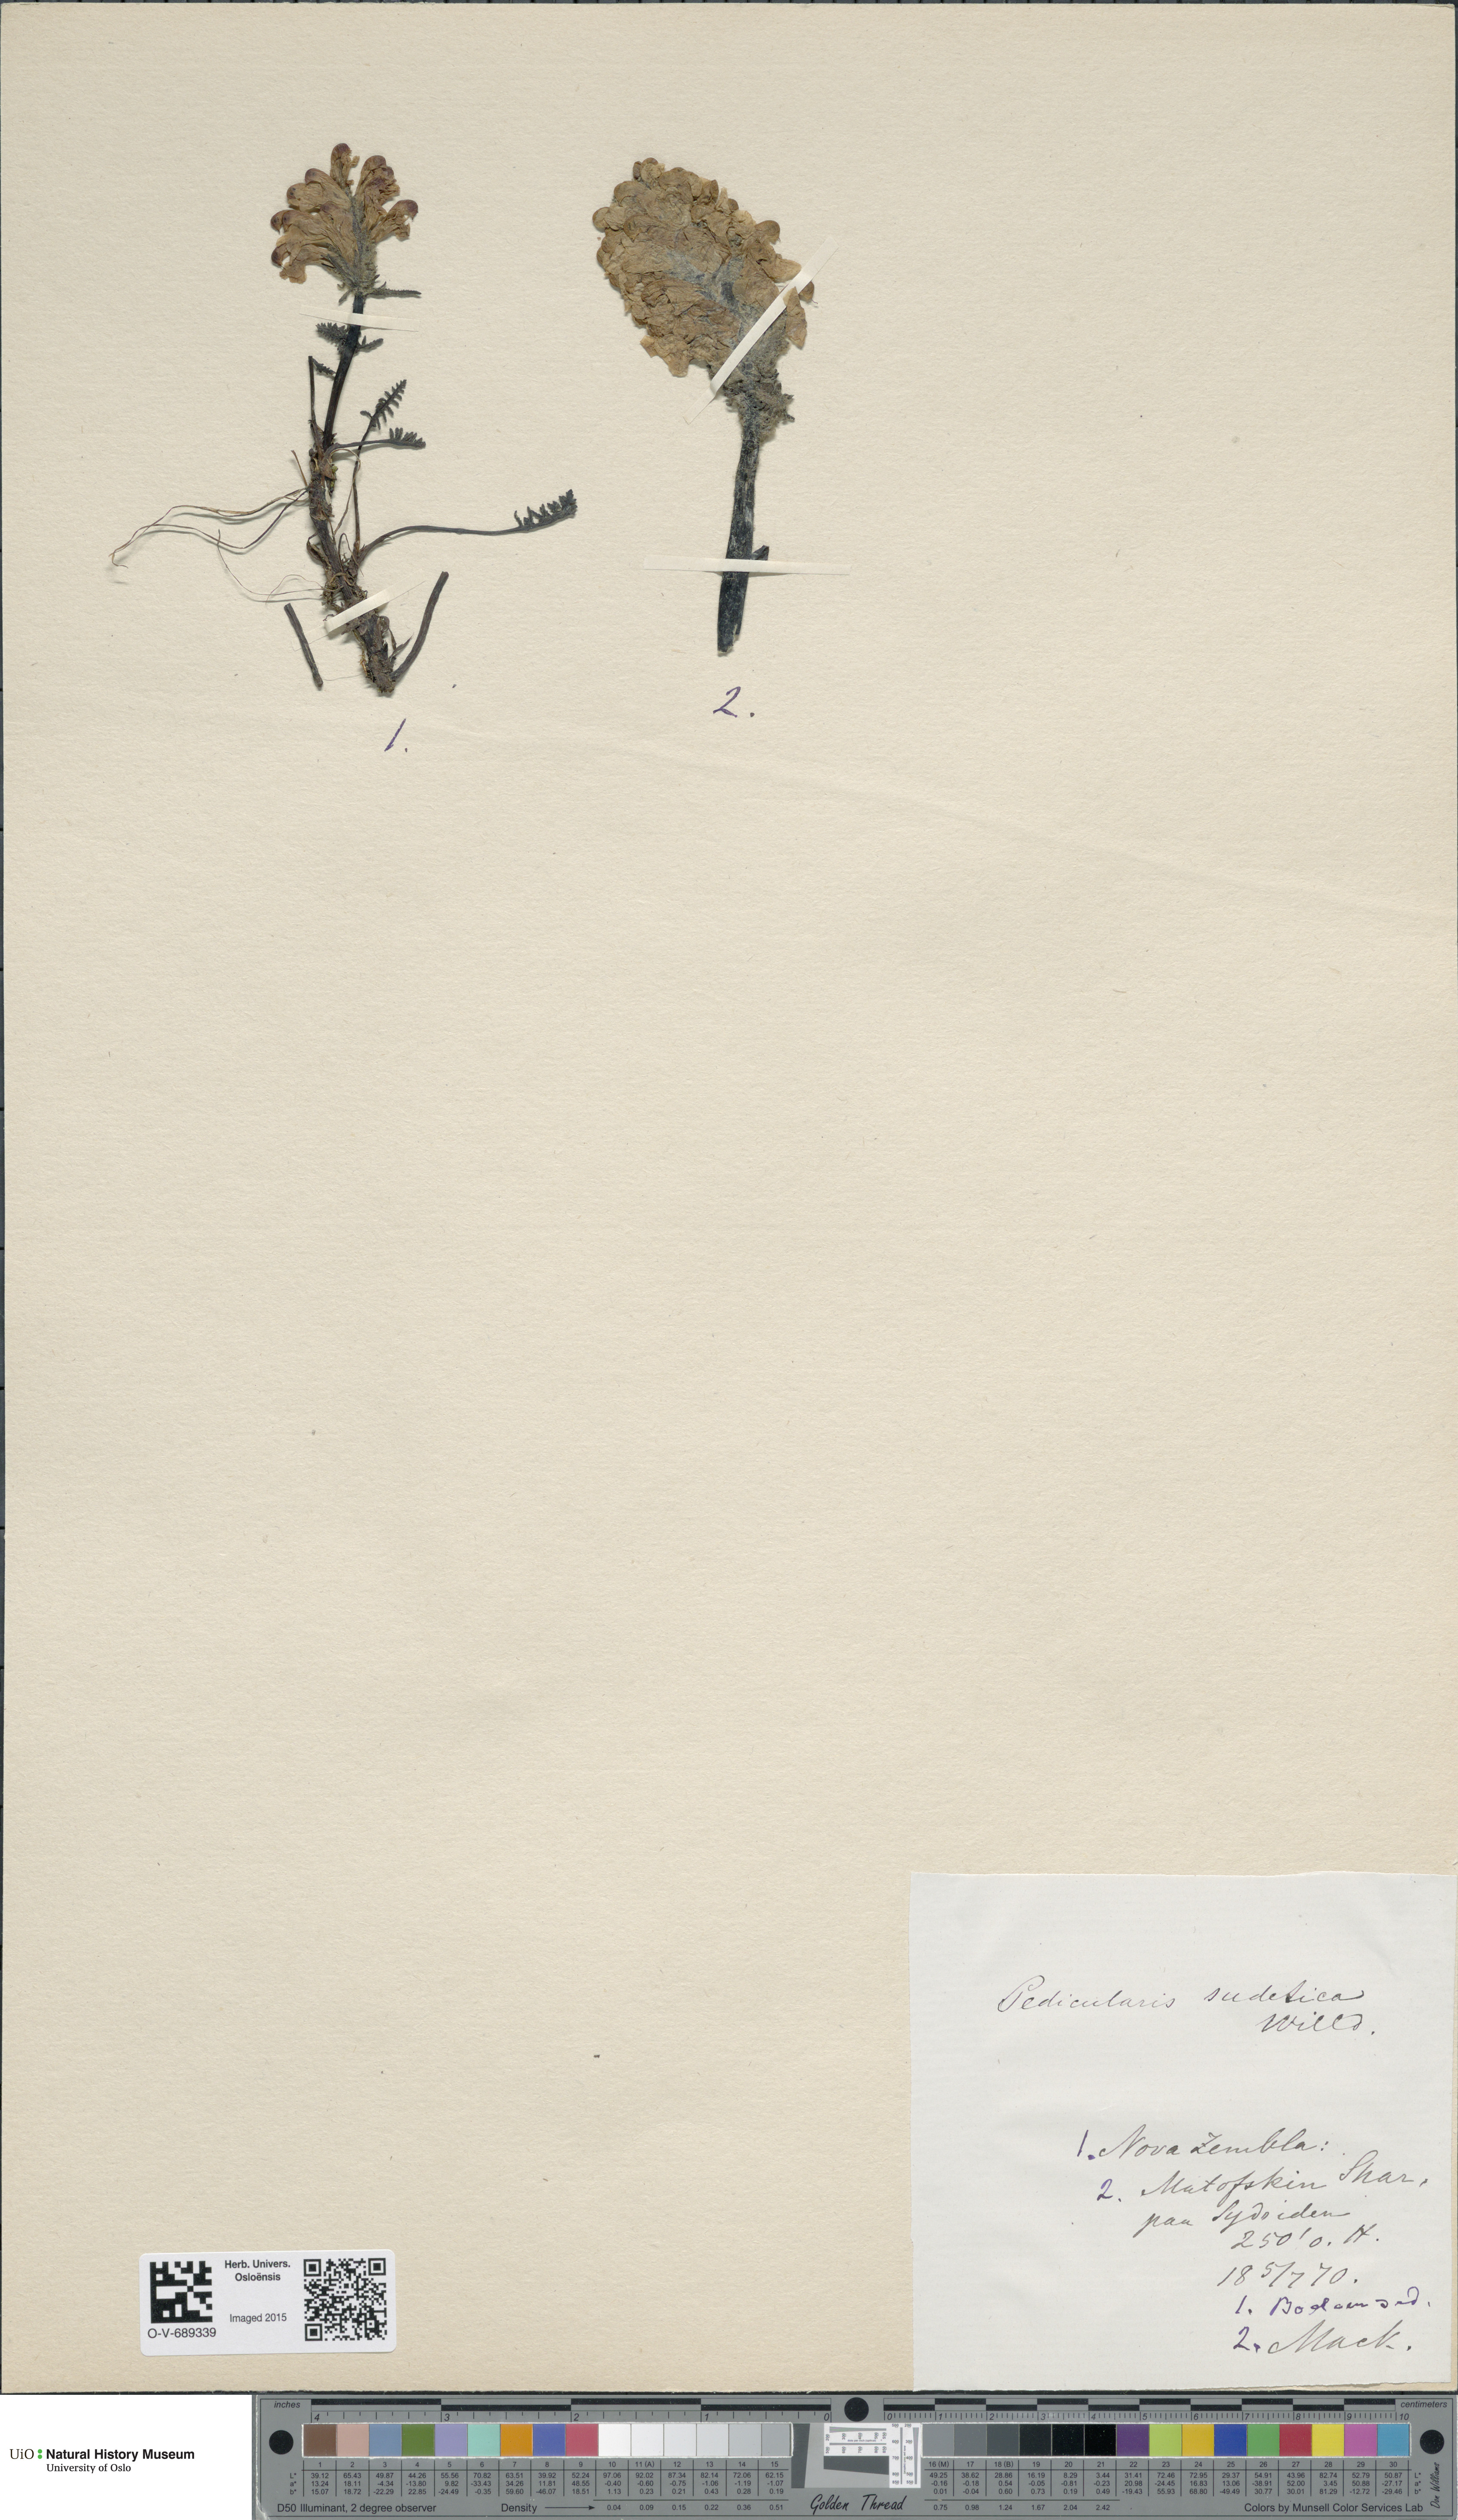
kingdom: Plantae
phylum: Tracheophyta
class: Magnoliopsida
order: Lamiales
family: Orobanchaceae
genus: Pedicularis
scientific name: Pedicularis sudetica
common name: Sudeten lousewort
